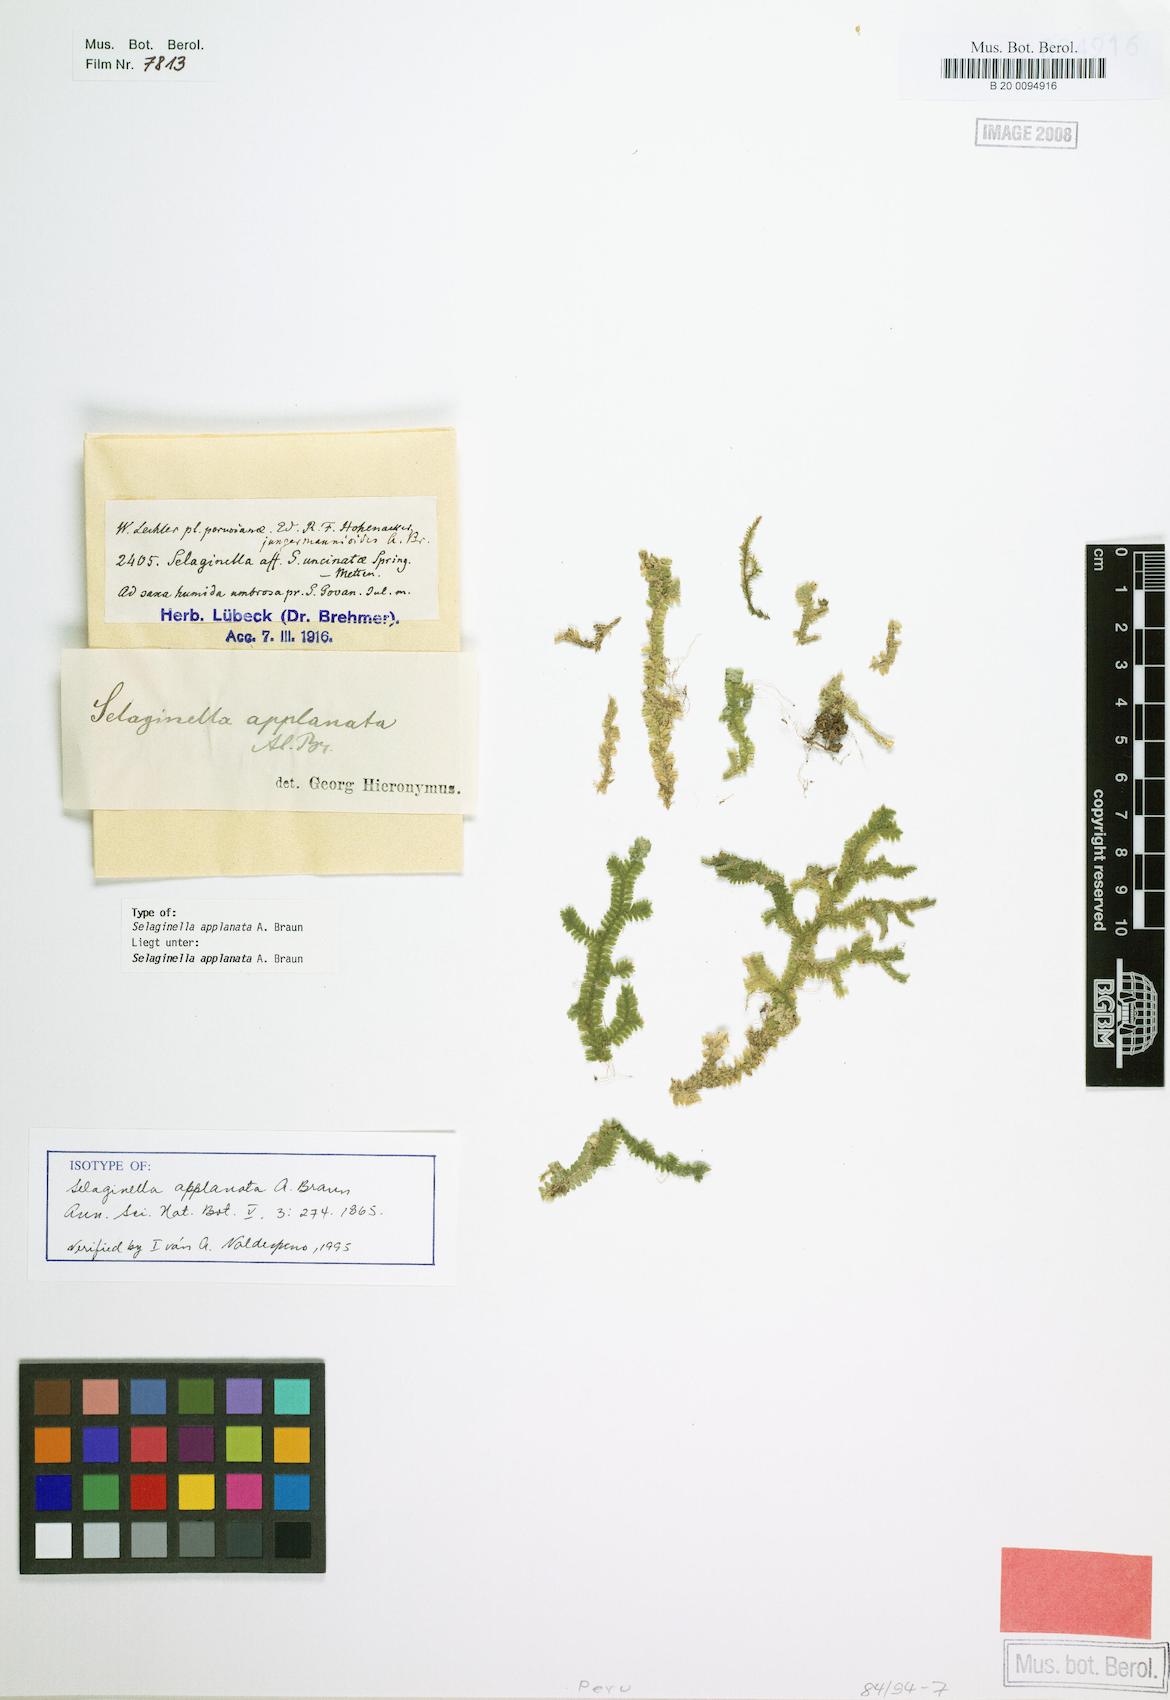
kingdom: Plantae
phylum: Tracheophyta
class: Lycopodiopsida
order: Selaginellales
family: Selaginellaceae
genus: Selaginella
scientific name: Selaginella applanata
